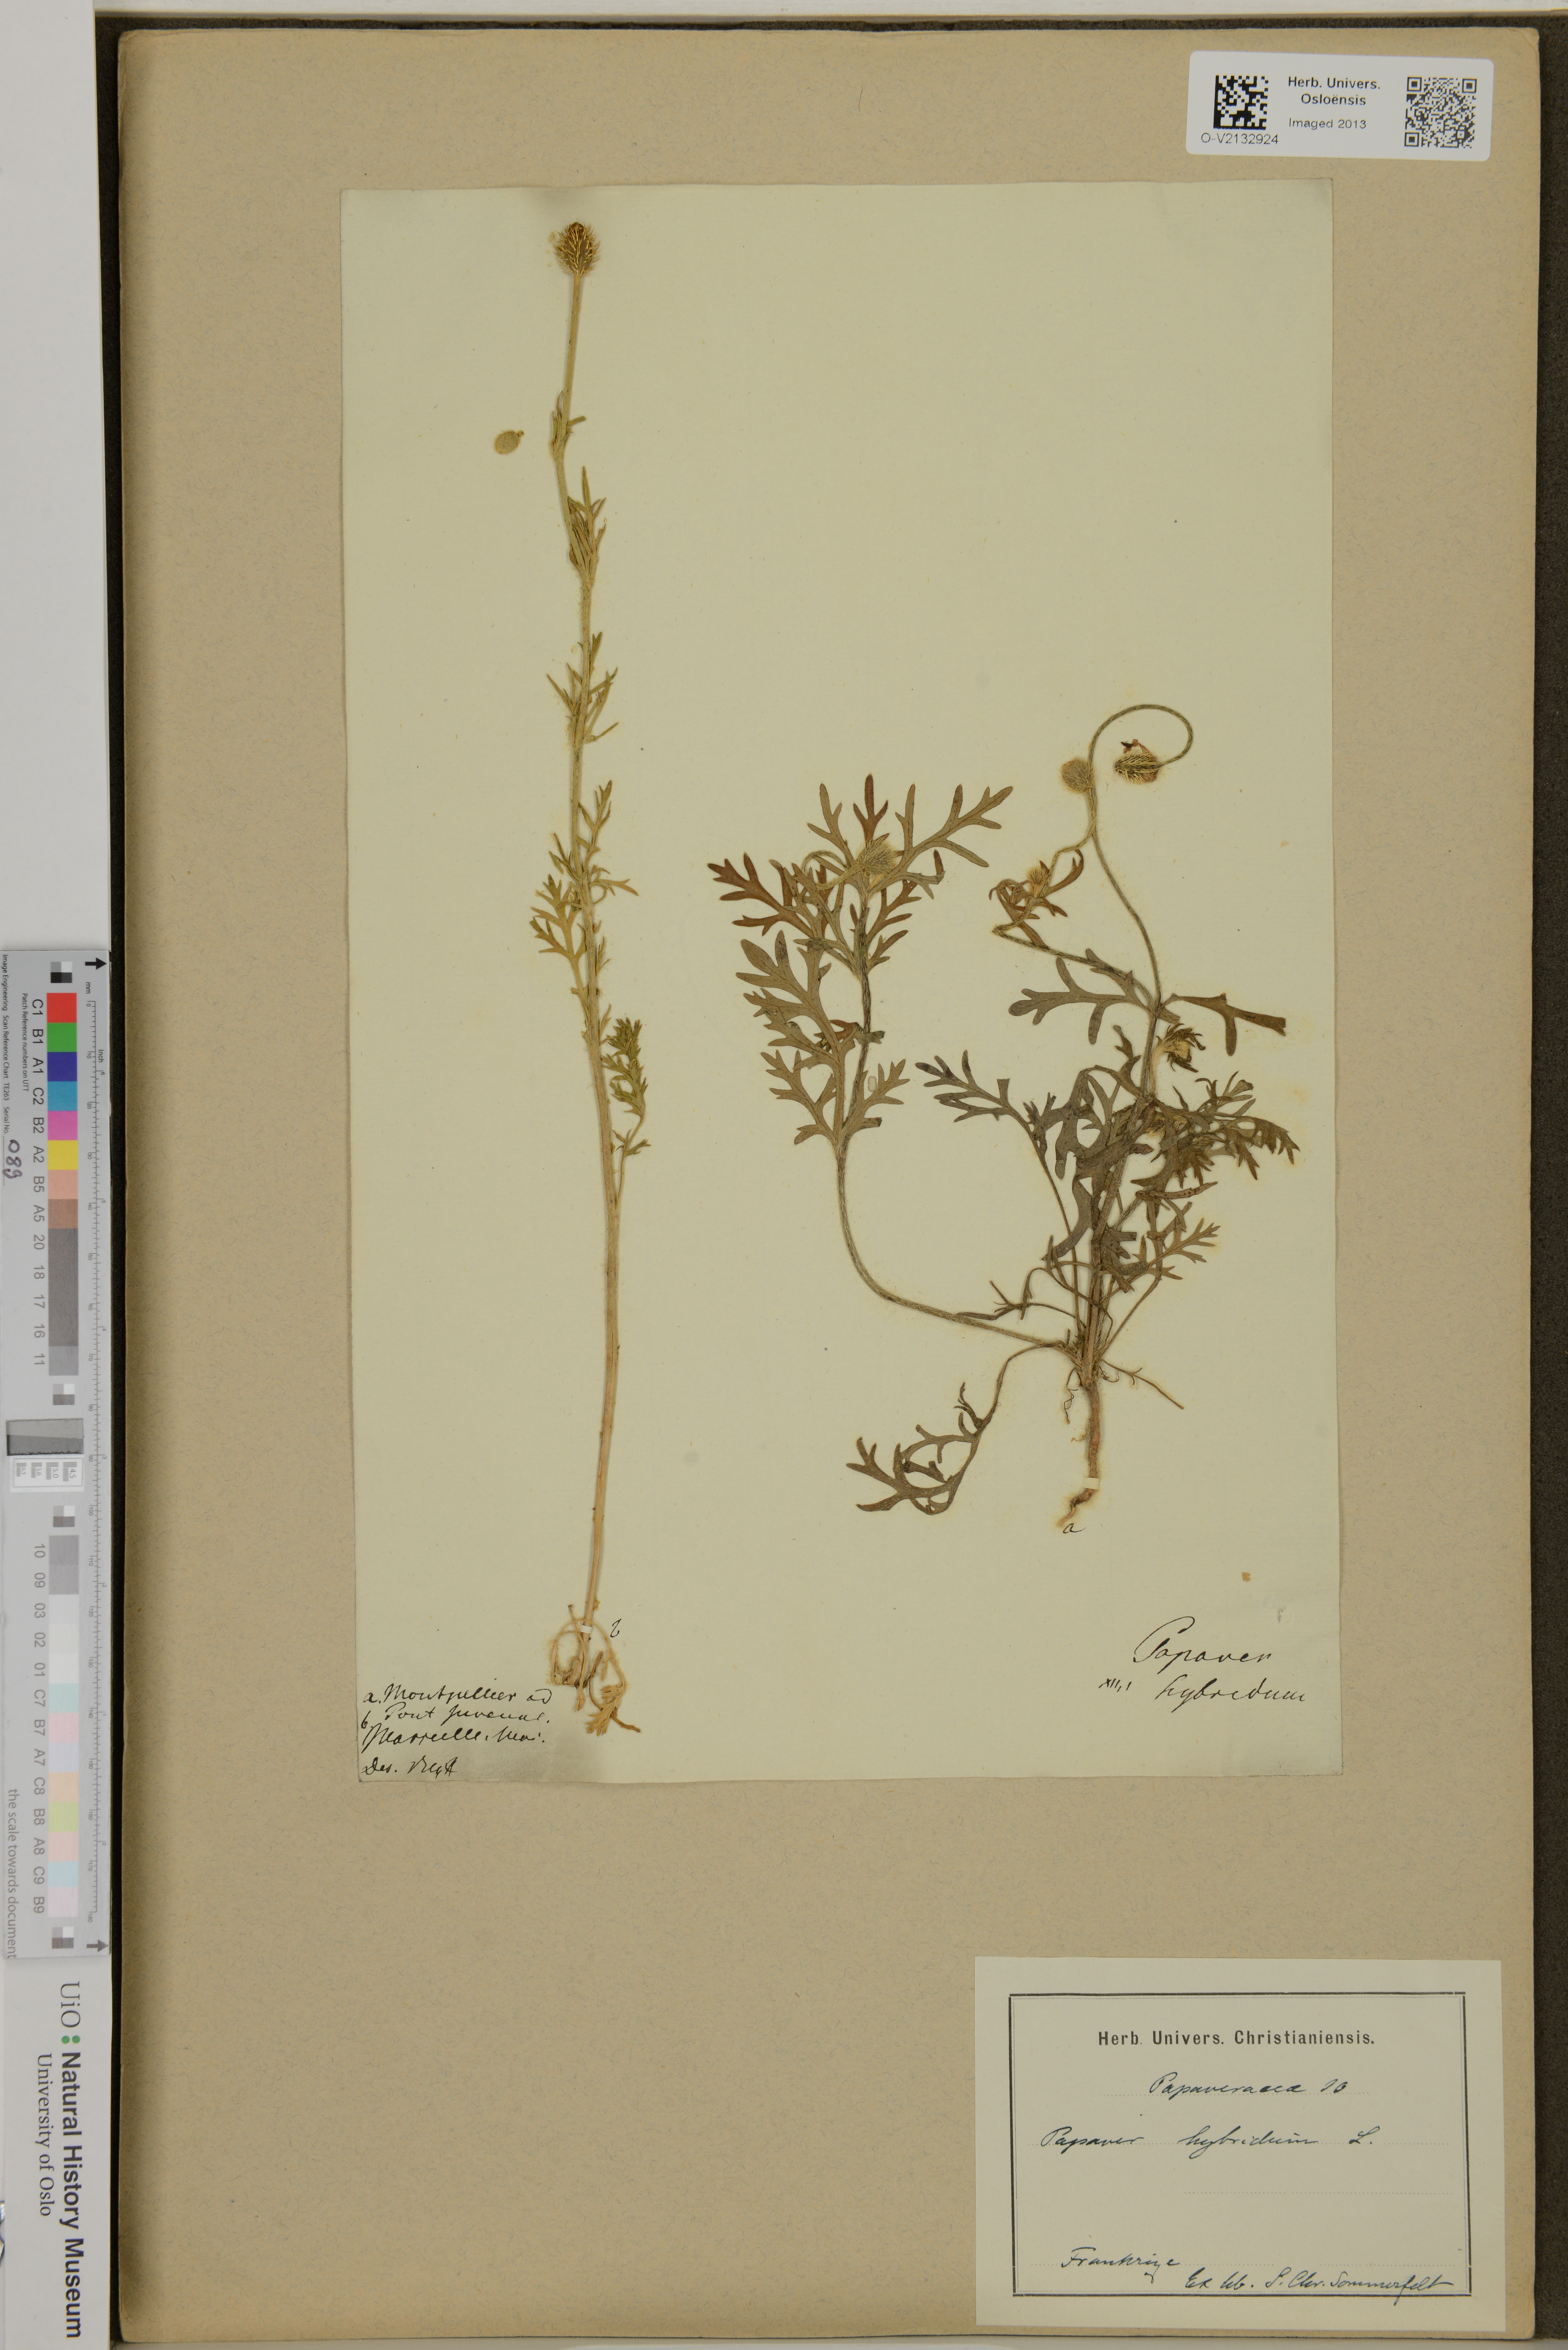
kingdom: Plantae
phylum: Tracheophyta
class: Magnoliopsida
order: Ranunculales
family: Papaveraceae
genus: Roemeria
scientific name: Roemeria hispida
